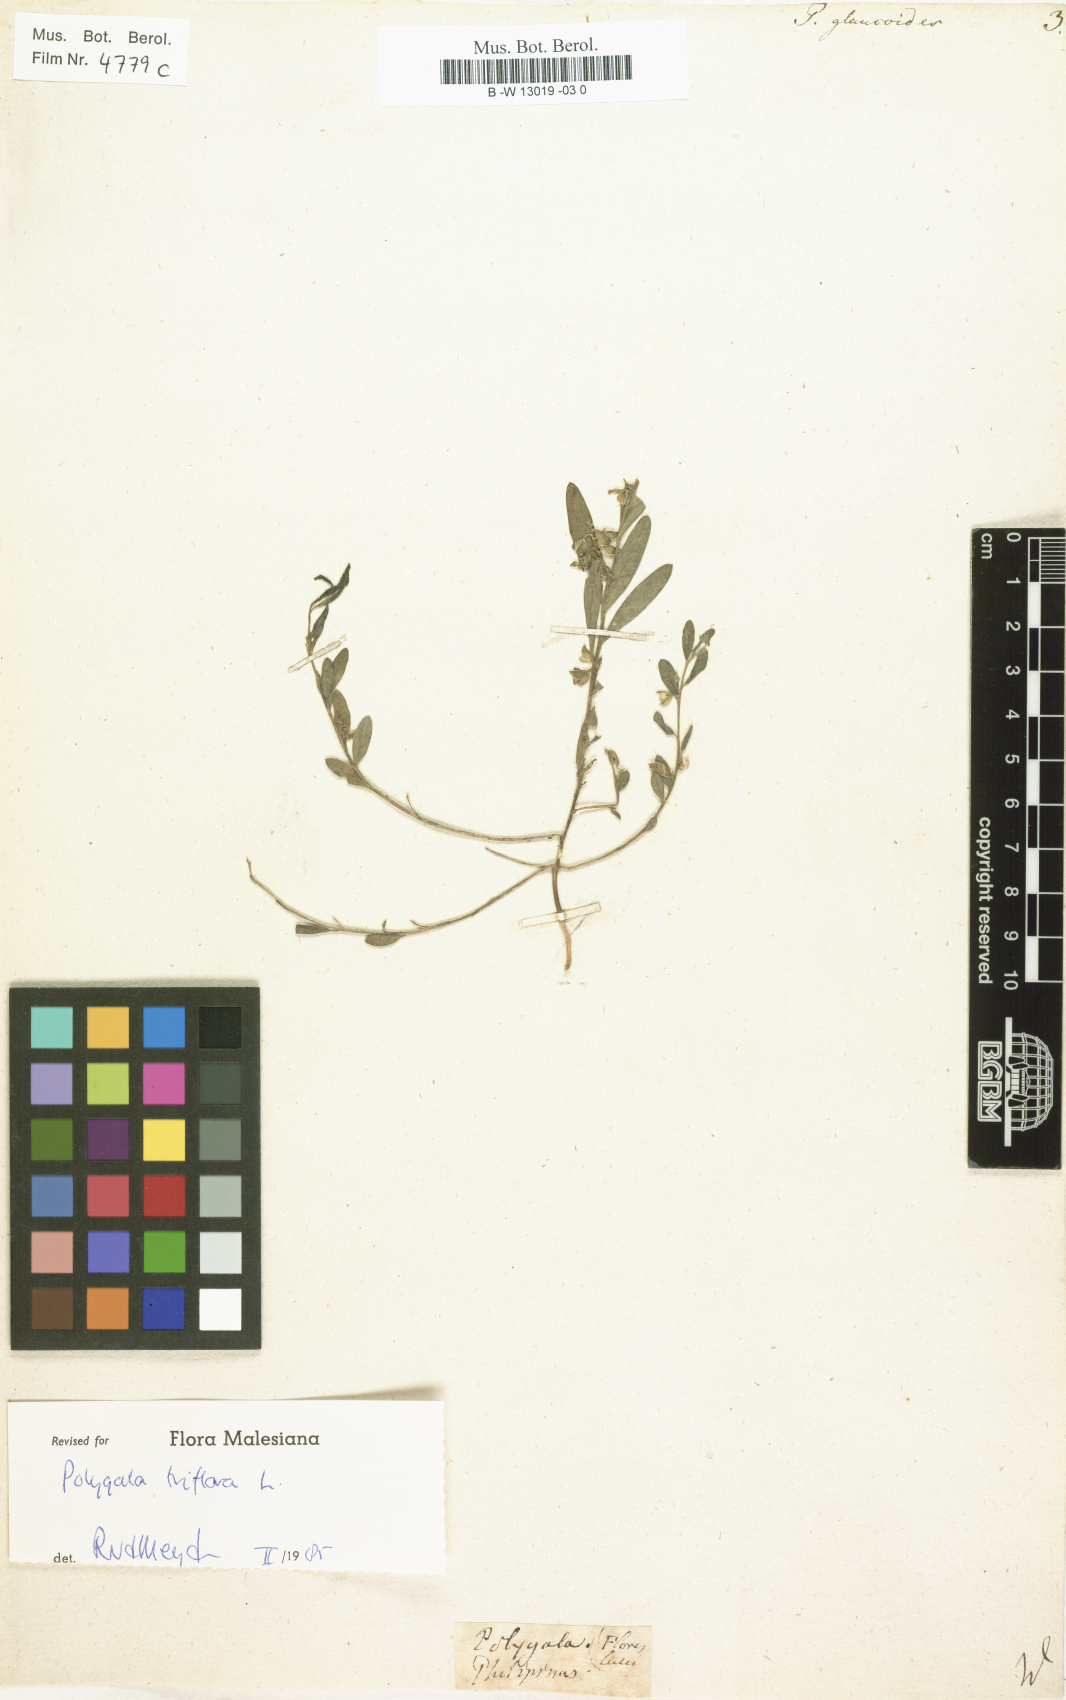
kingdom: Plantae
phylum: Tracheophyta
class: Magnoliopsida
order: Fabales
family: Polygalaceae
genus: Polygala
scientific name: Polygala glaucoides
